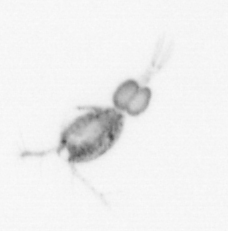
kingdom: Animalia
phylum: Arthropoda
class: Copepoda
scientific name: Copepoda
